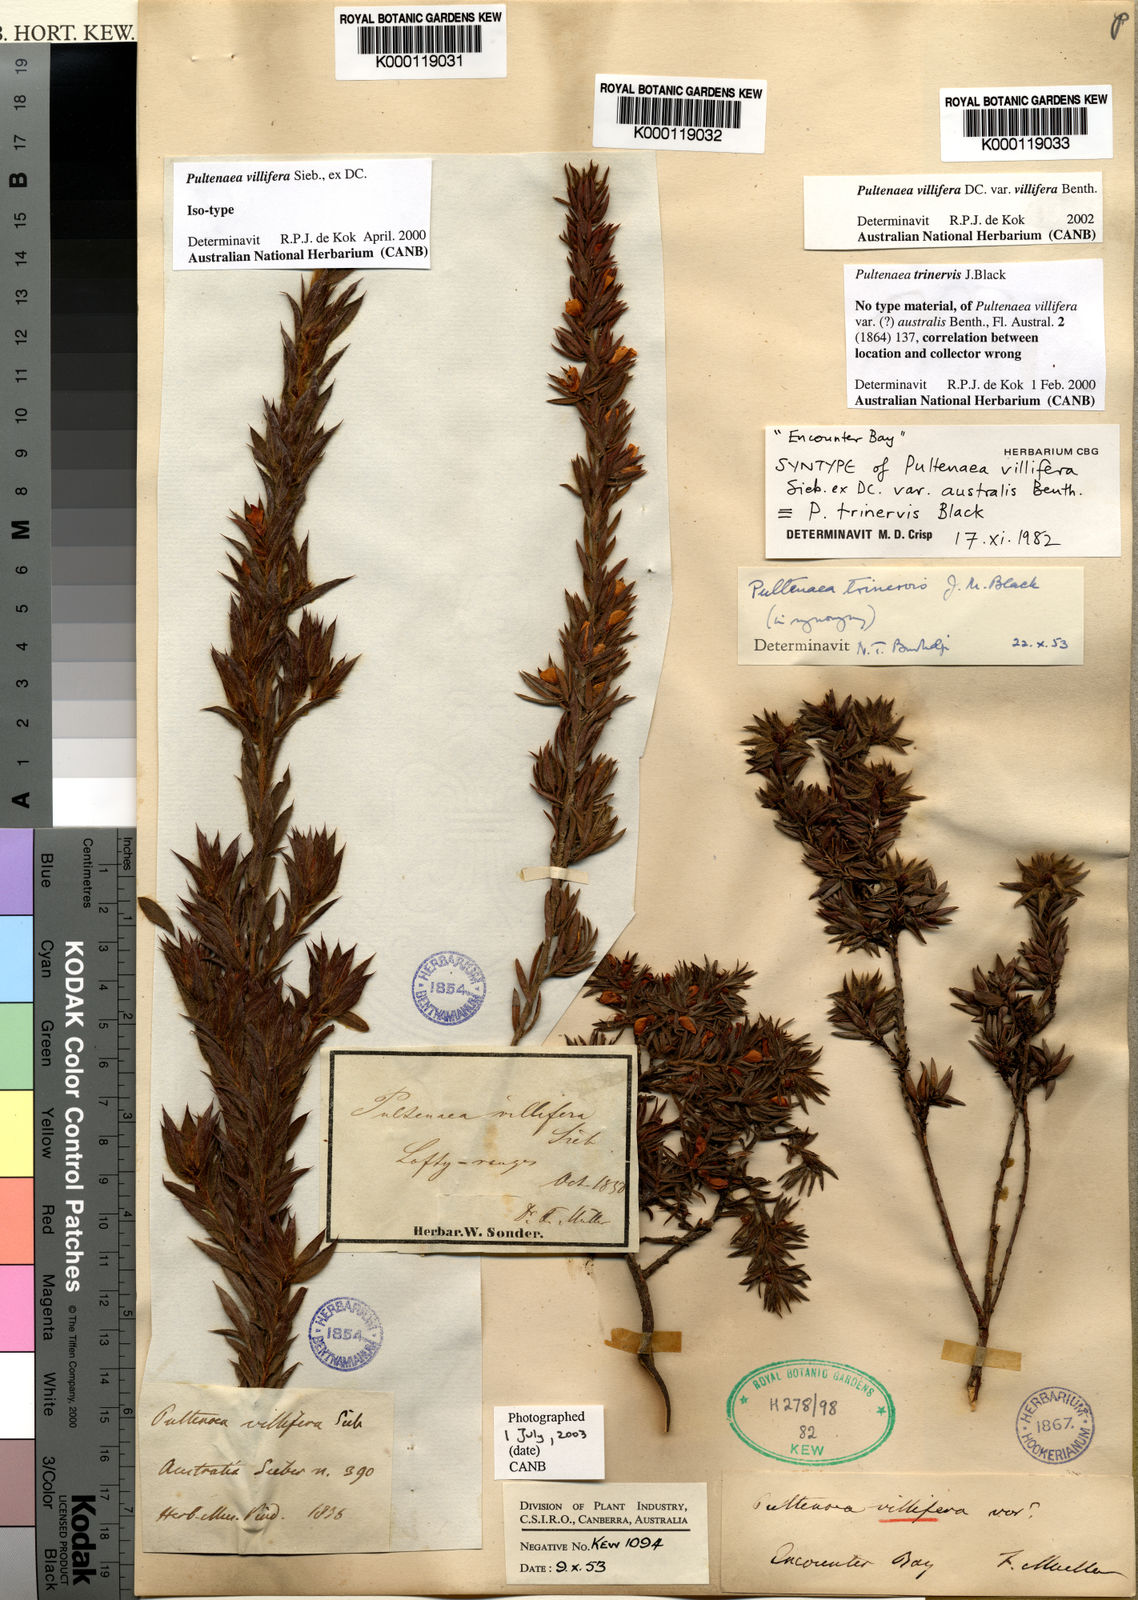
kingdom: Plantae
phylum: Tracheophyta
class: Magnoliopsida
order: Fabales
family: Fabaceae
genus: Pultenaea
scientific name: Pultenaea trinervis
